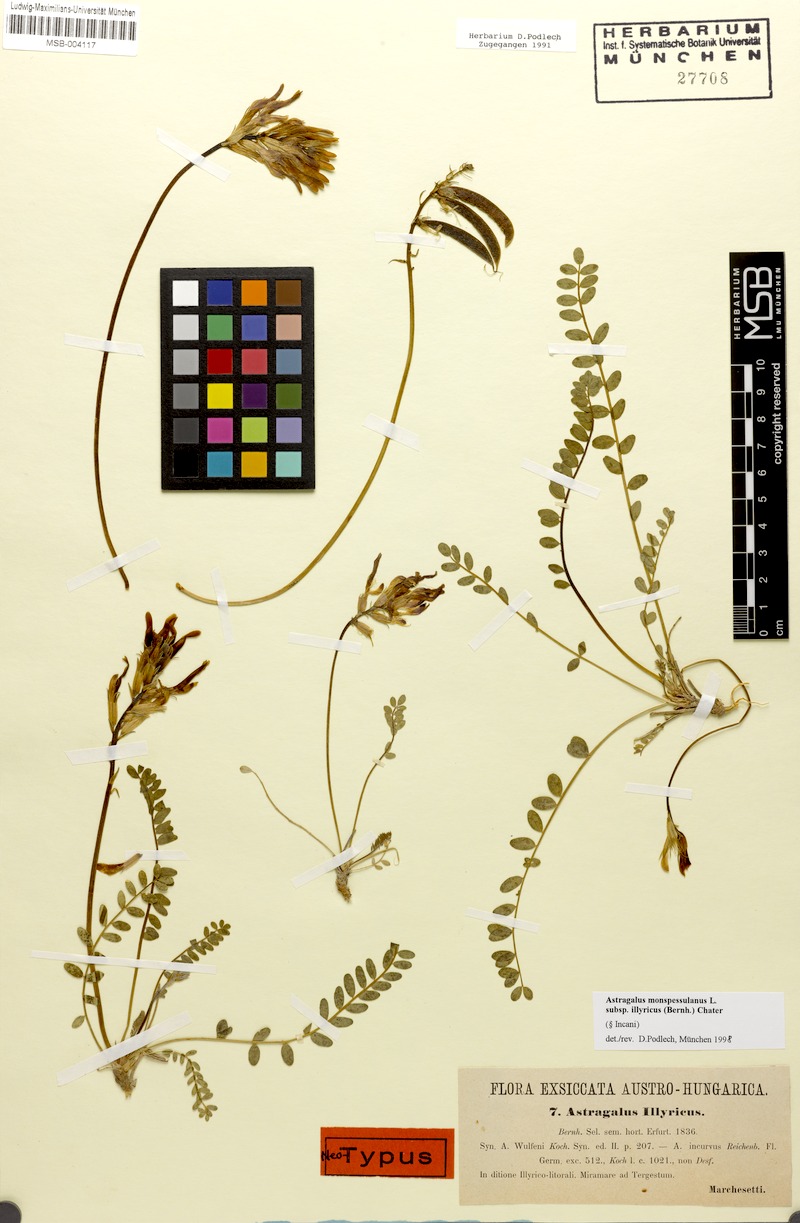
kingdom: Plantae
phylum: Tracheophyta
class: Magnoliopsida
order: Fabales
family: Fabaceae
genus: Astragalus
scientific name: Astragalus monspessulanus
